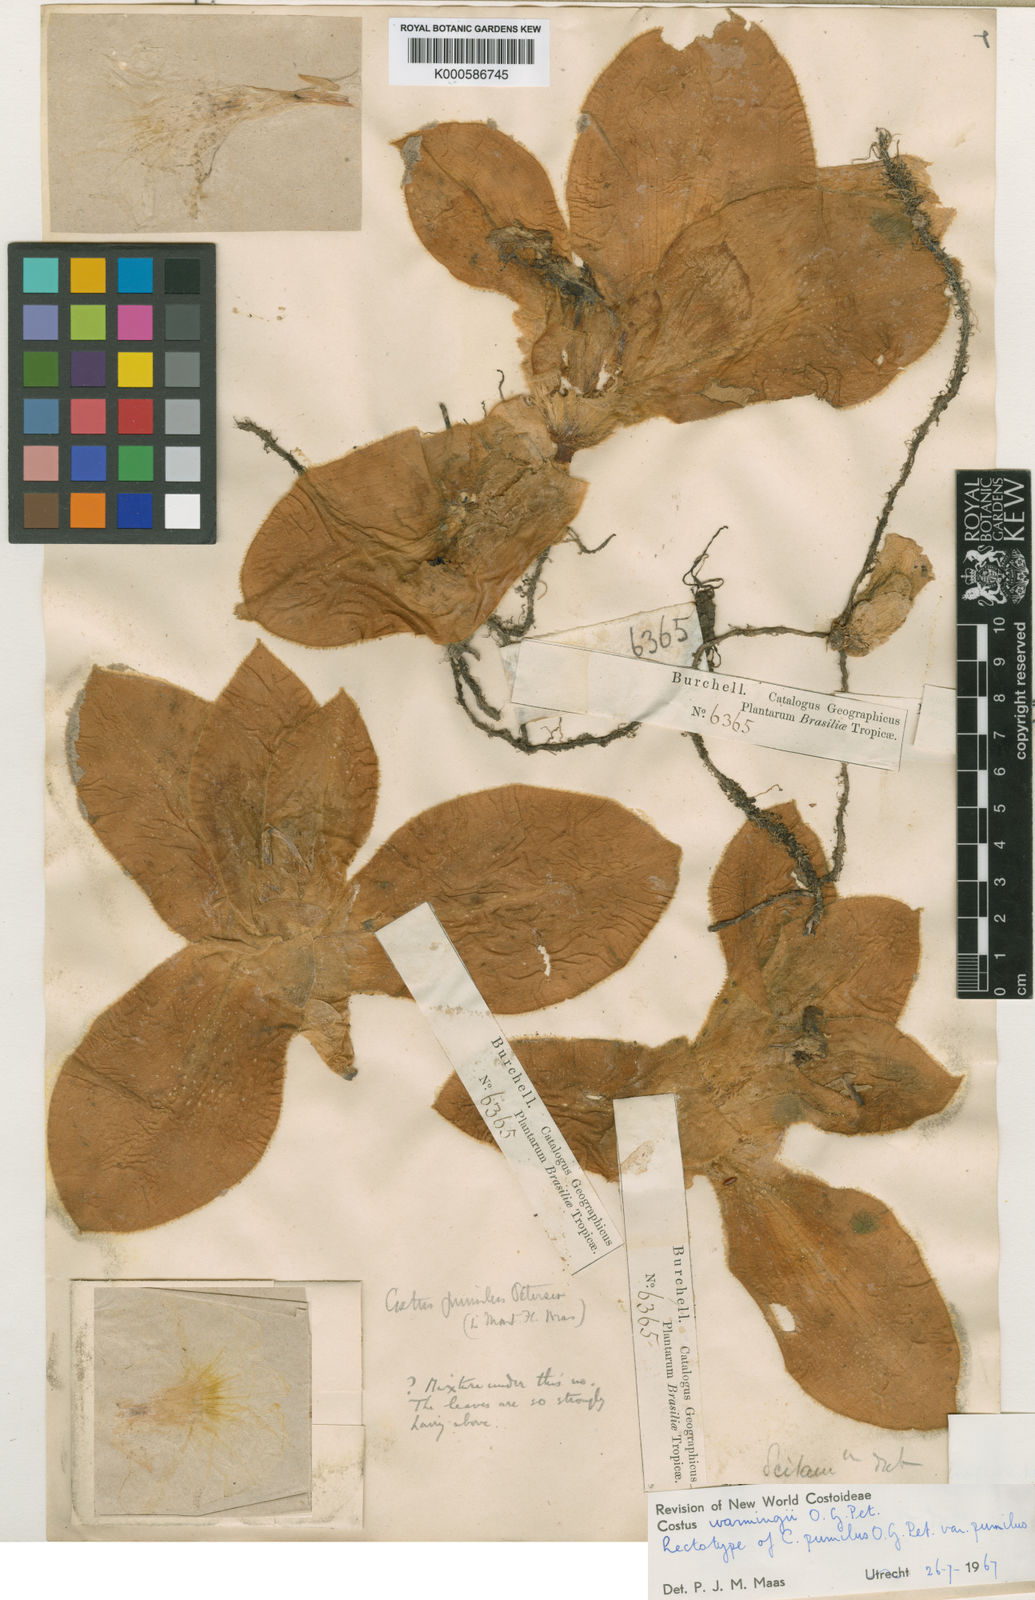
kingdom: Plantae
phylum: Tracheophyta
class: Liliopsida
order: Zingiberales
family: Costaceae
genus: Chamaecostus
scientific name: Chamaecostus subsessilis
